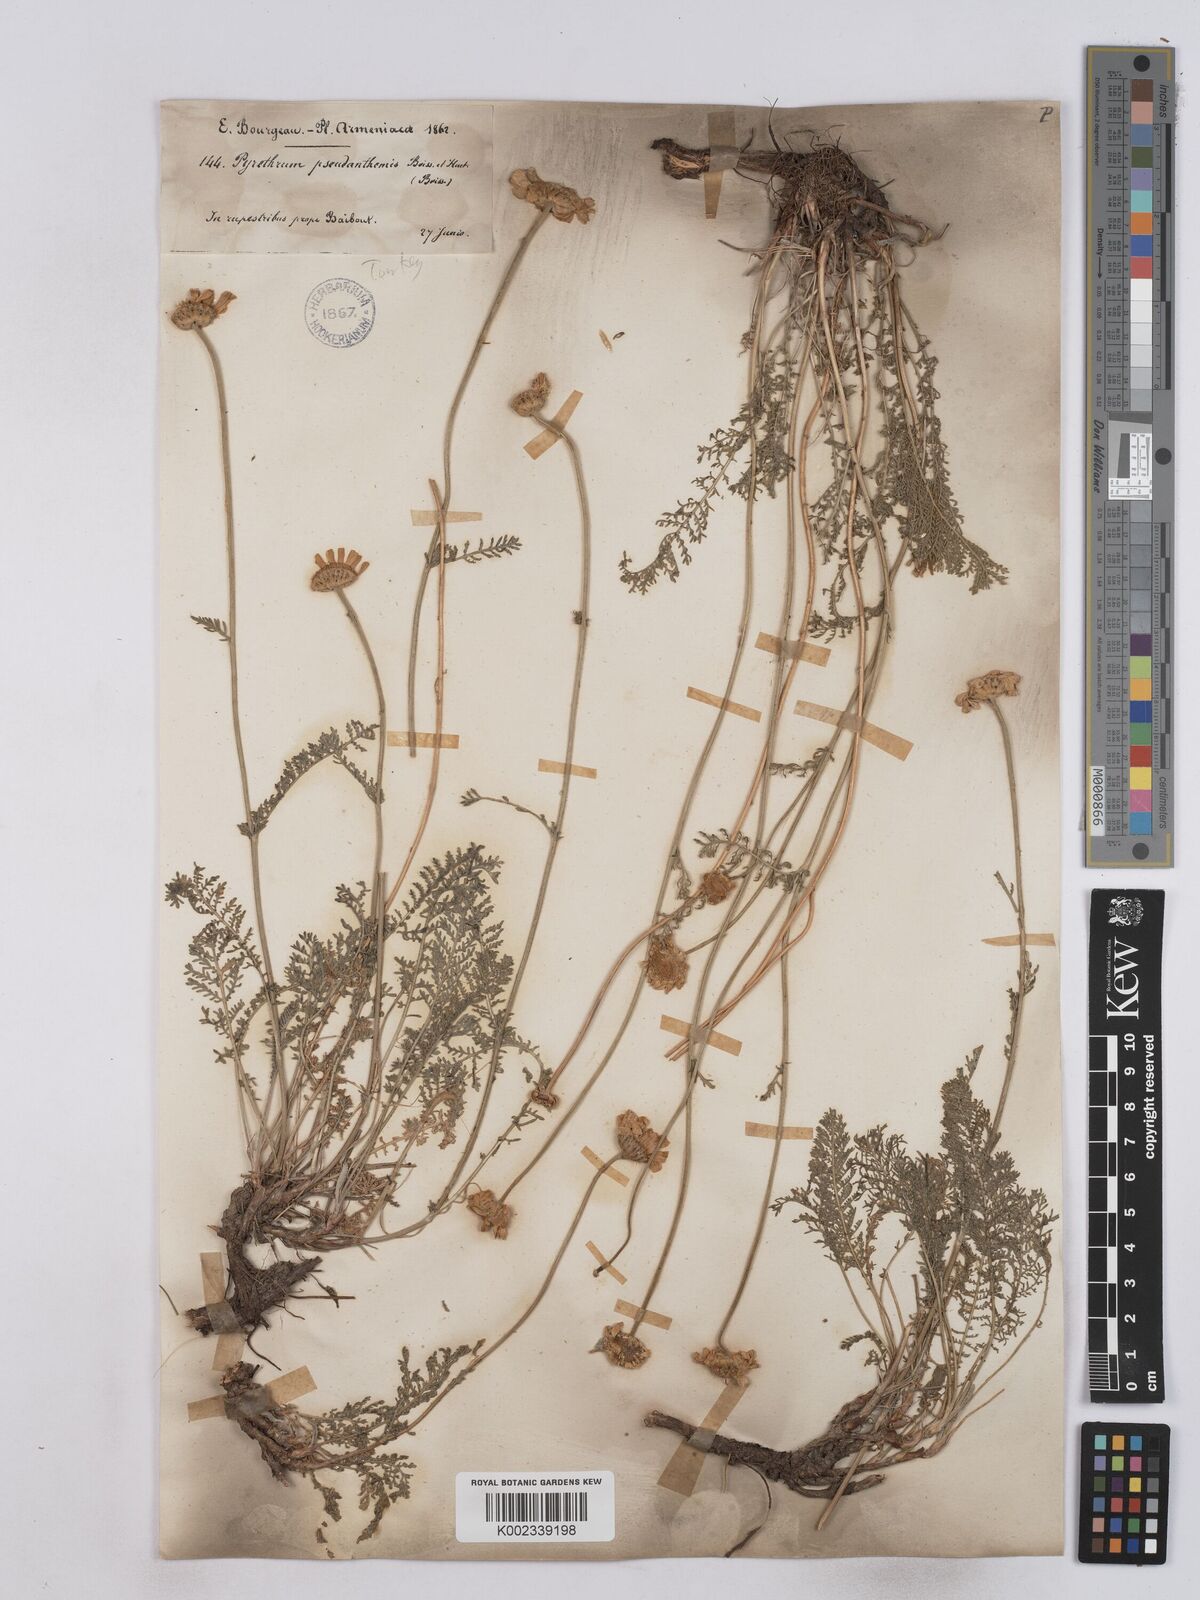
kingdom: Plantae
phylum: Tracheophyta
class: Magnoliopsida
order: Asterales
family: Asteraceae
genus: Tanacetum
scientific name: Tanacetum aucherianum
